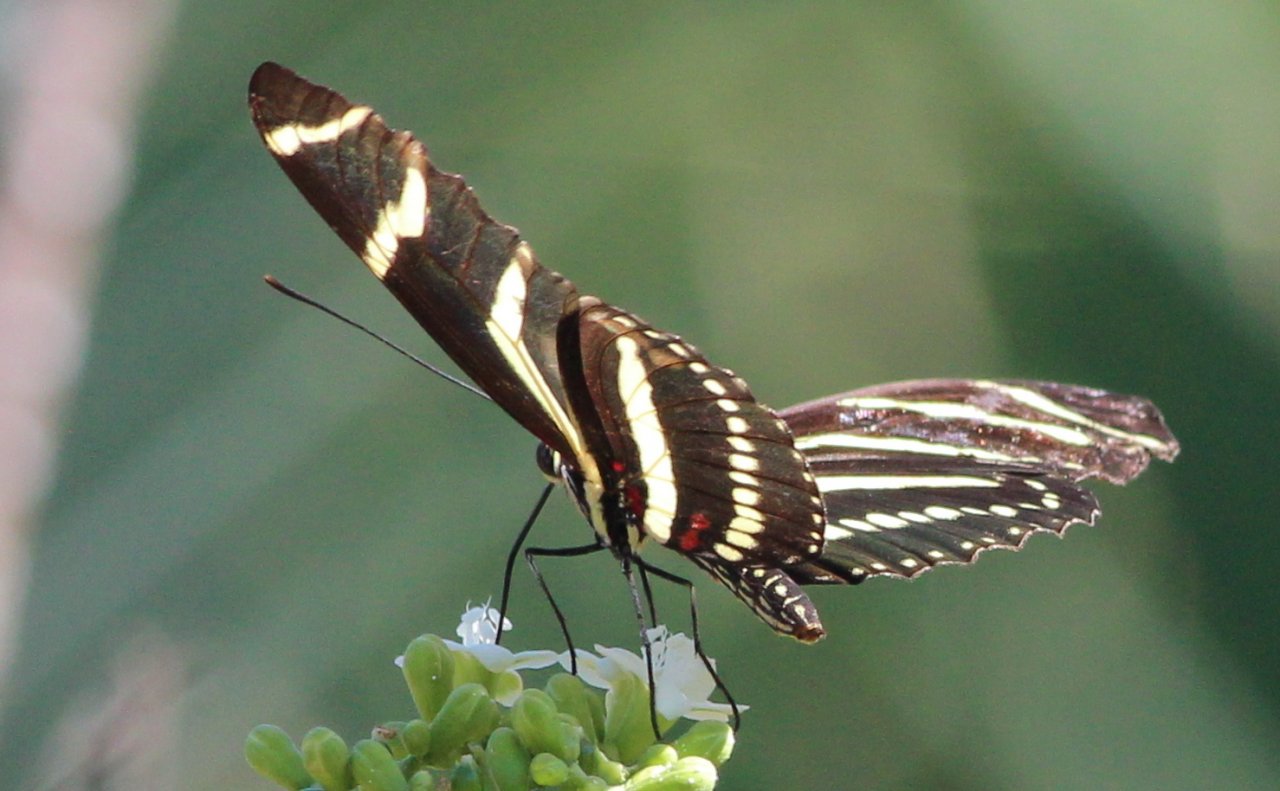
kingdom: Animalia
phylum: Arthropoda
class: Insecta
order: Lepidoptera
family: Nymphalidae
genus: Heliconius
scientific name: Heliconius charithonia
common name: Zebra Longwing
